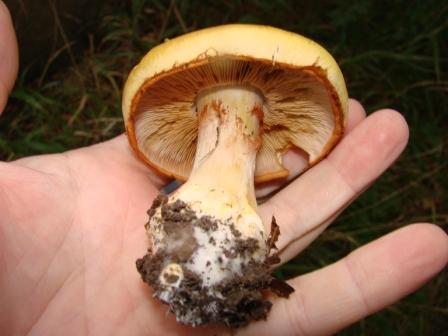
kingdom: Fungi
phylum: Basidiomycota
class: Agaricomycetes
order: Agaricales
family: Cortinariaceae
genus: Phlegmacium
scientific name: Phlegmacium caesiocortinatum
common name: rundsporet slørhat
